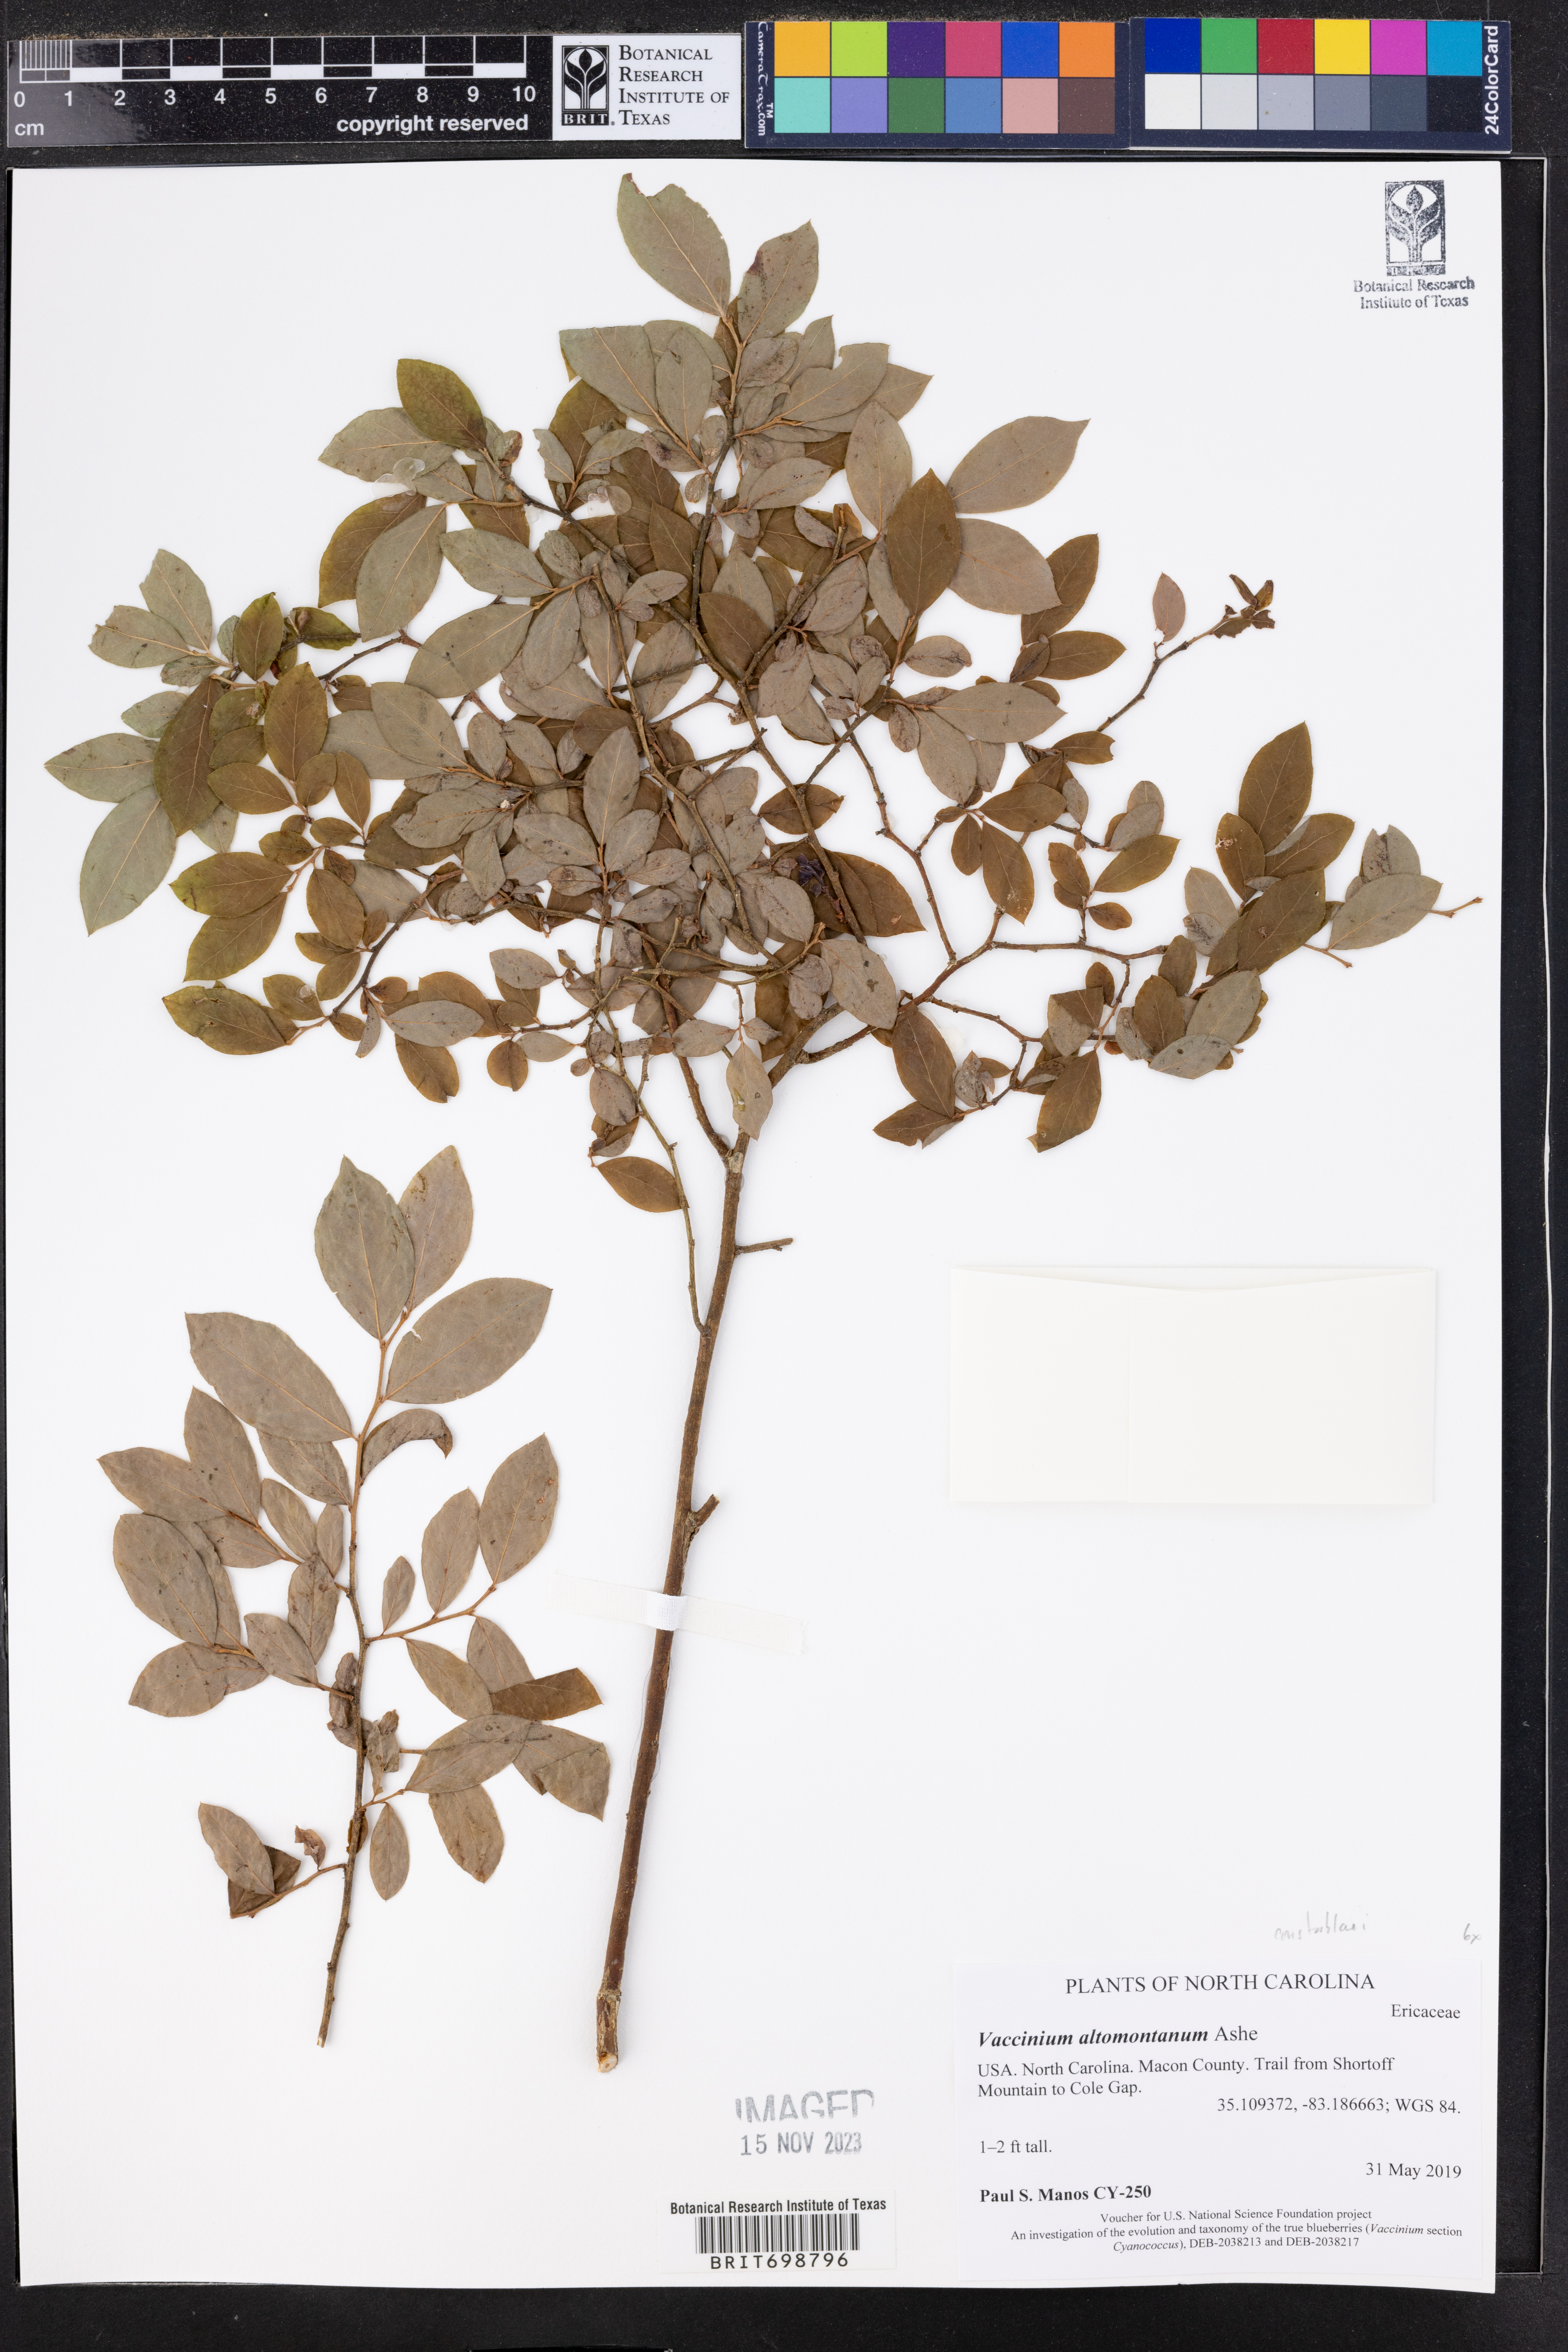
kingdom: Plantae
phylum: Tracheophyta
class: Magnoliopsida
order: Ericales
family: Ericaceae
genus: Vaccinium
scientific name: Vaccinium pallidum
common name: Blue ridge blueberry
